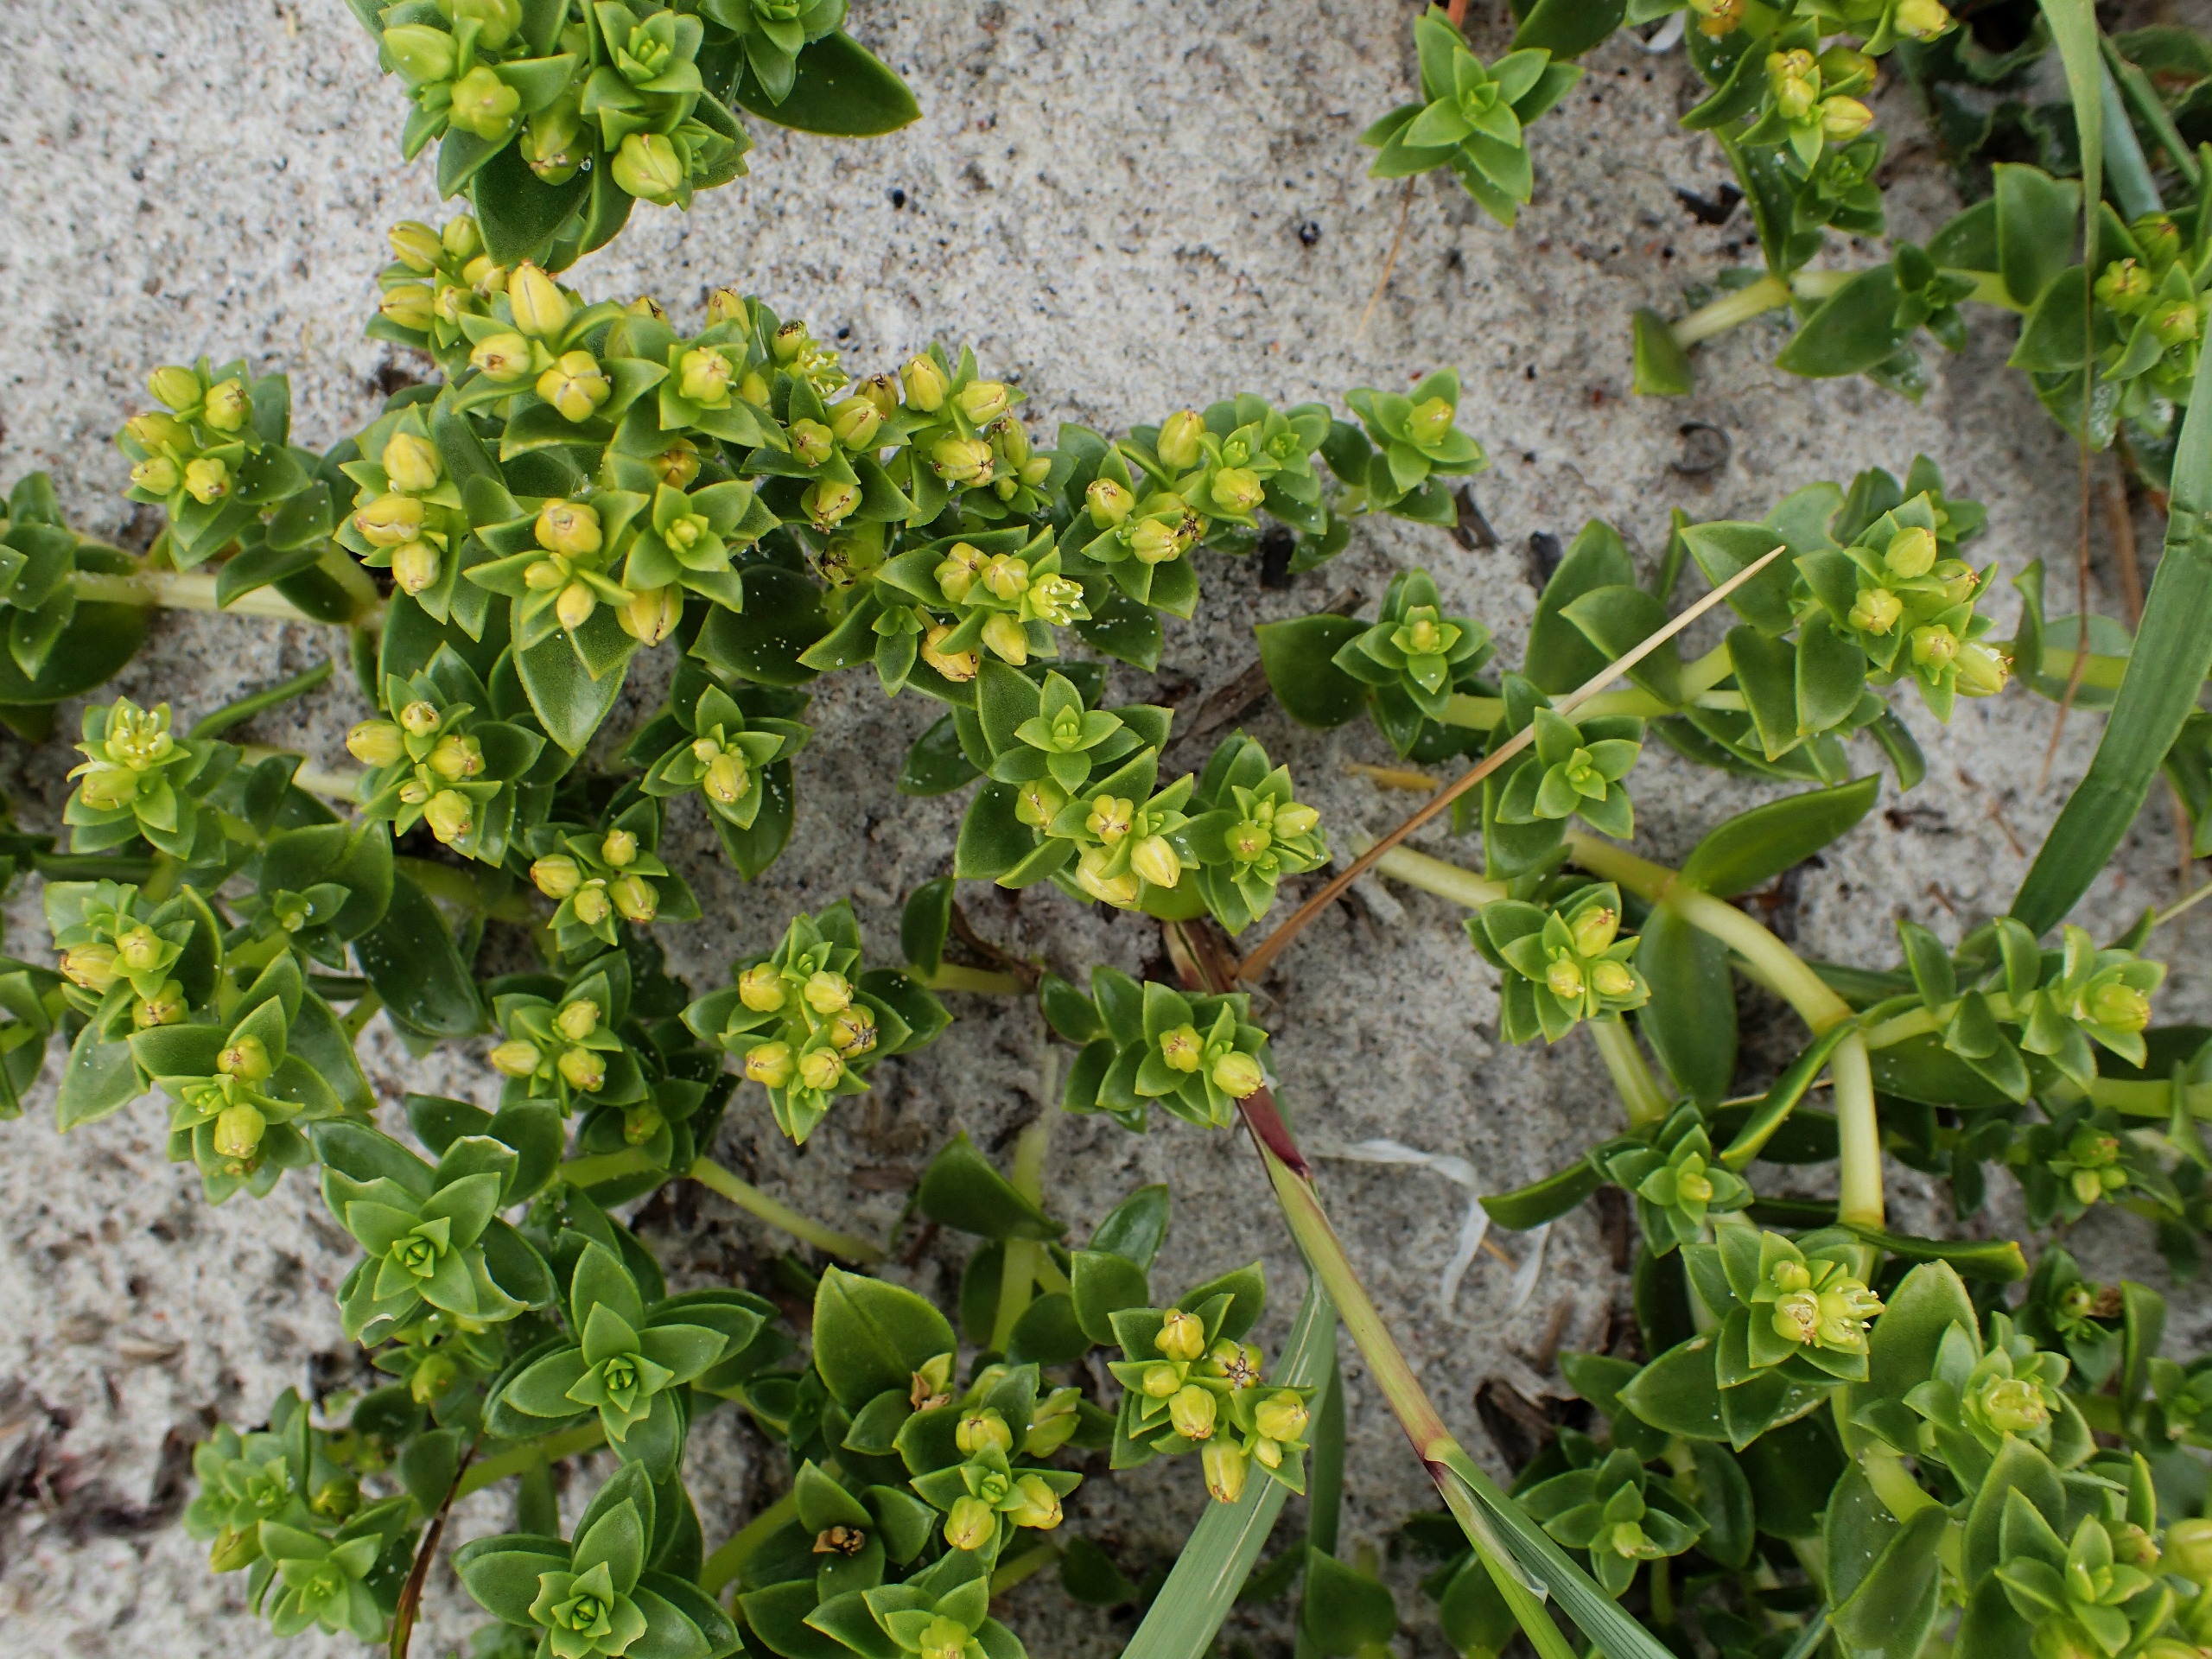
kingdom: Plantae
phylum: Tracheophyta
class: Magnoliopsida
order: Caryophyllales
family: Caryophyllaceae
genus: Honckenya
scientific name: Honckenya peploides
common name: Strandarve
